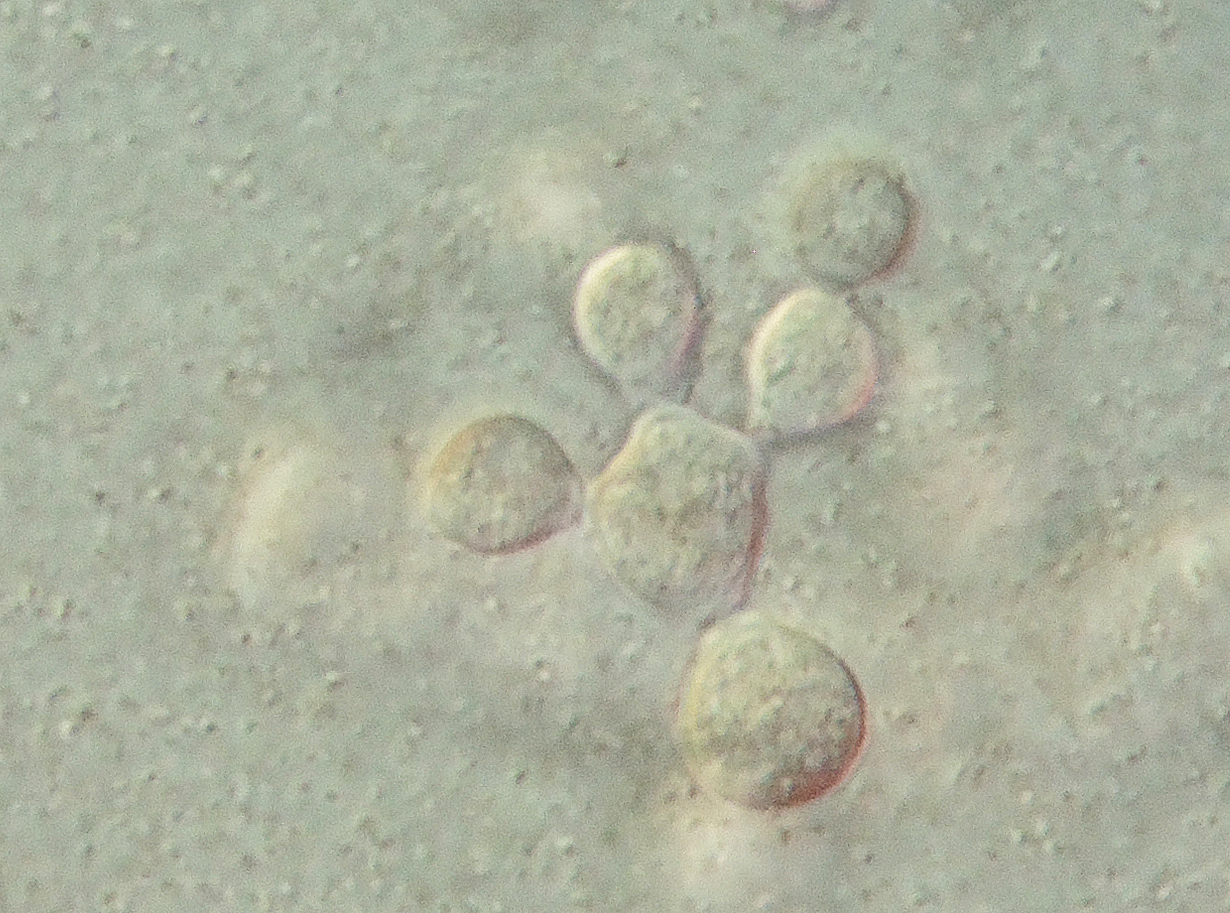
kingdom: Fungi
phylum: Ascomycota
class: Sordariomycetes
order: Sordariales
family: Chaetomiaceae
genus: Myceliophthora
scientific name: Myceliophthora lutea
